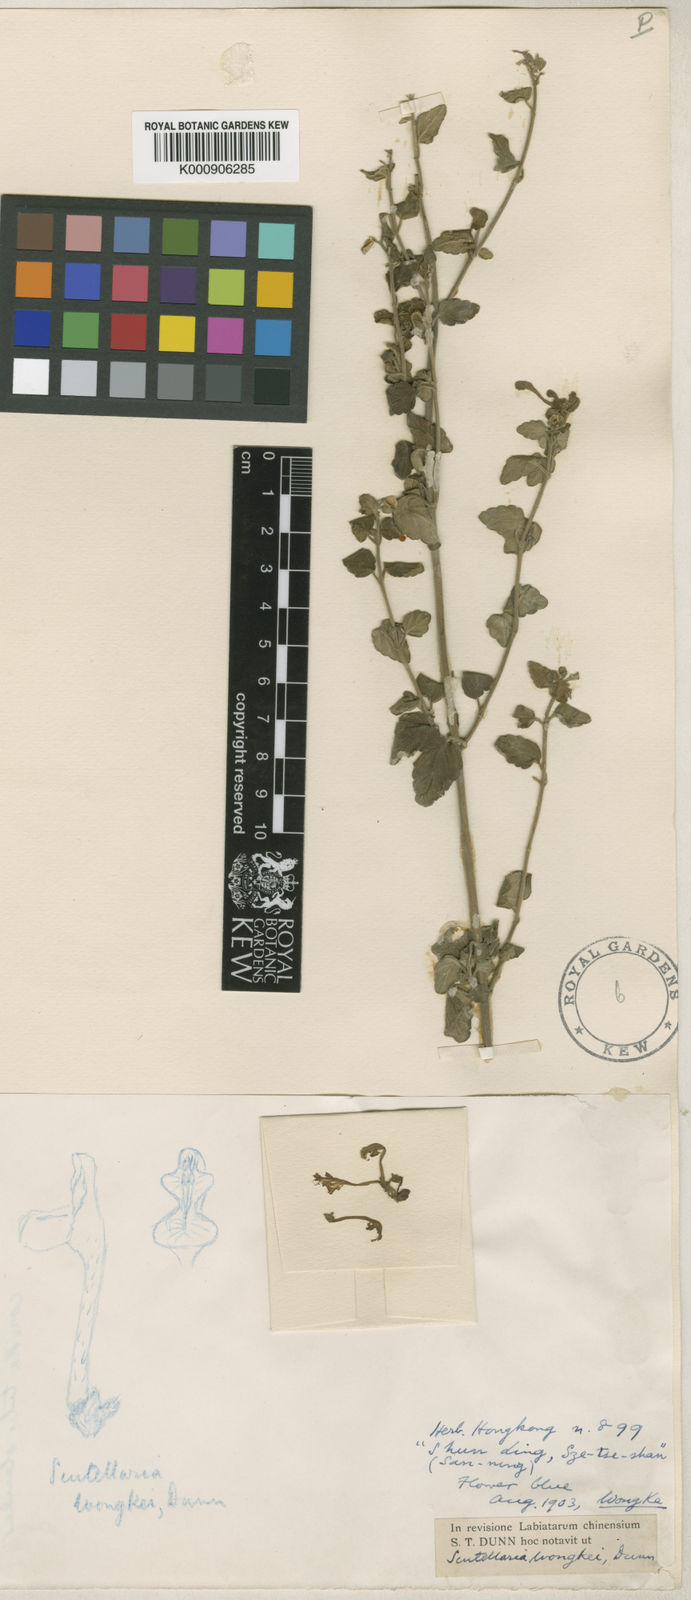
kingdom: Plantae
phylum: Tracheophyta
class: Magnoliopsida
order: Lamiales
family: Lamiaceae
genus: Scutellaria
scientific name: Scutellaria wongkei
